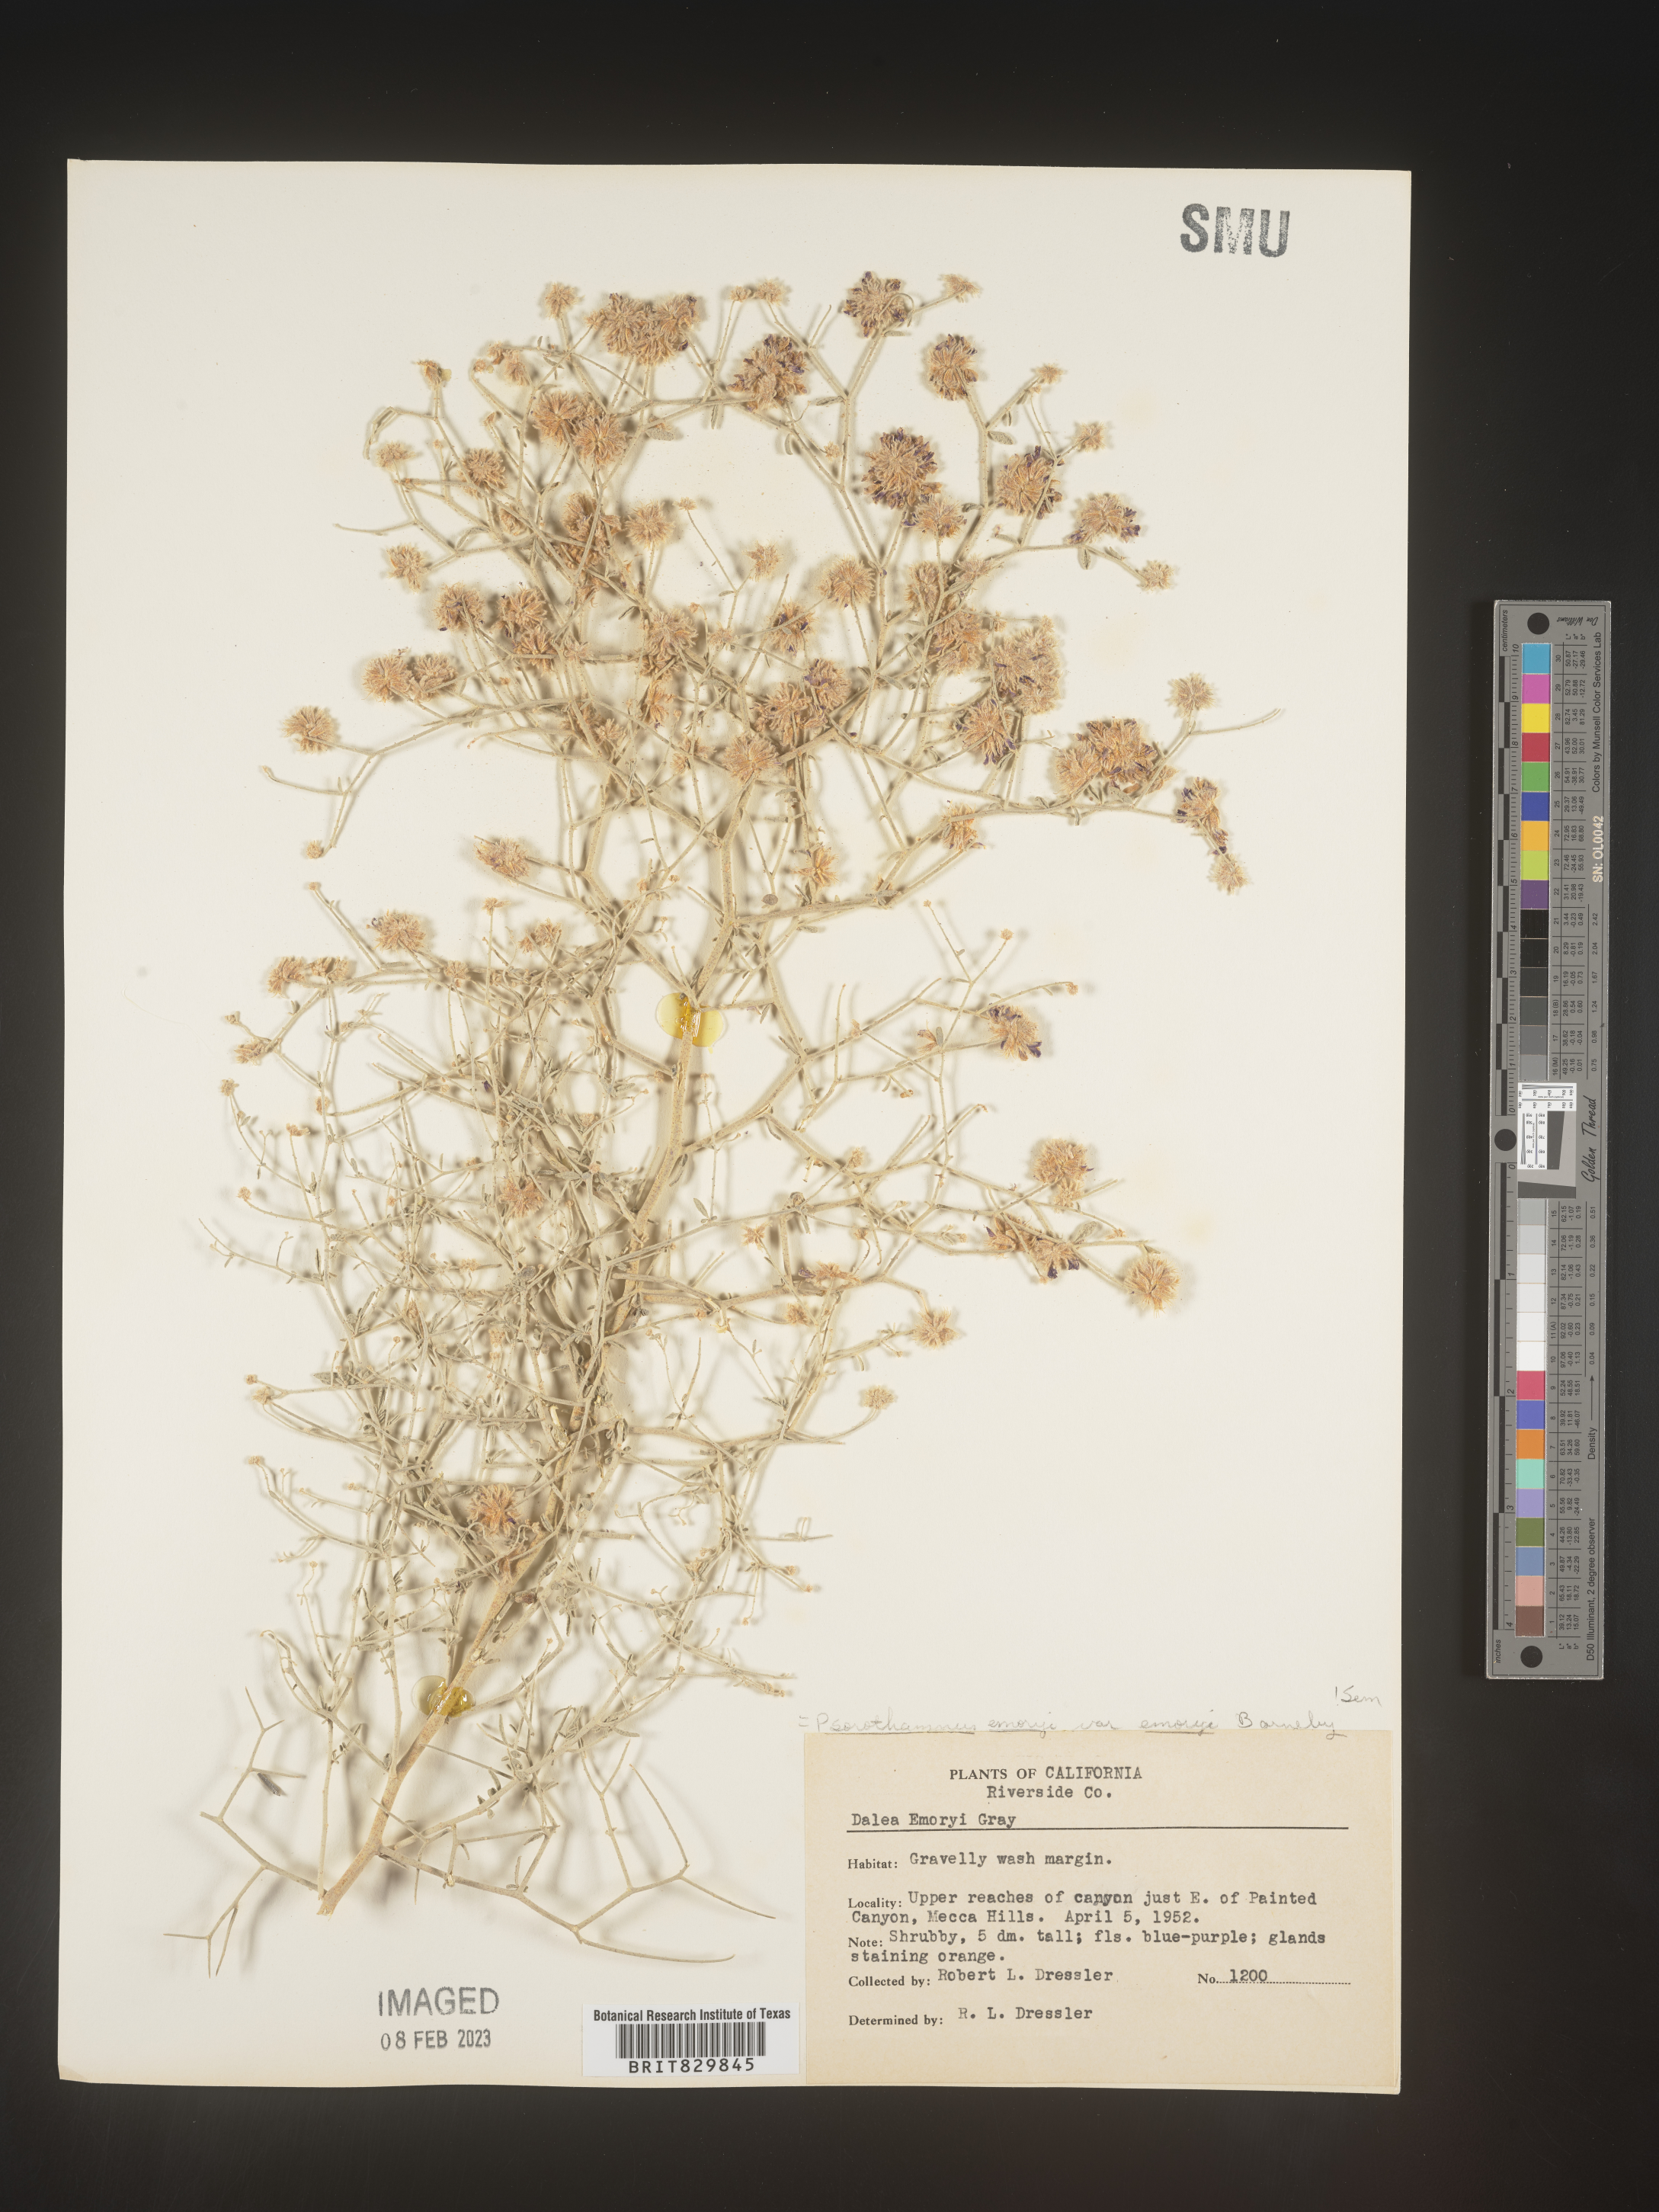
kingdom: Plantae
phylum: Tracheophyta
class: Magnoliopsida
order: Fabales
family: Fabaceae
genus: Psorothamnus
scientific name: Psorothamnus
